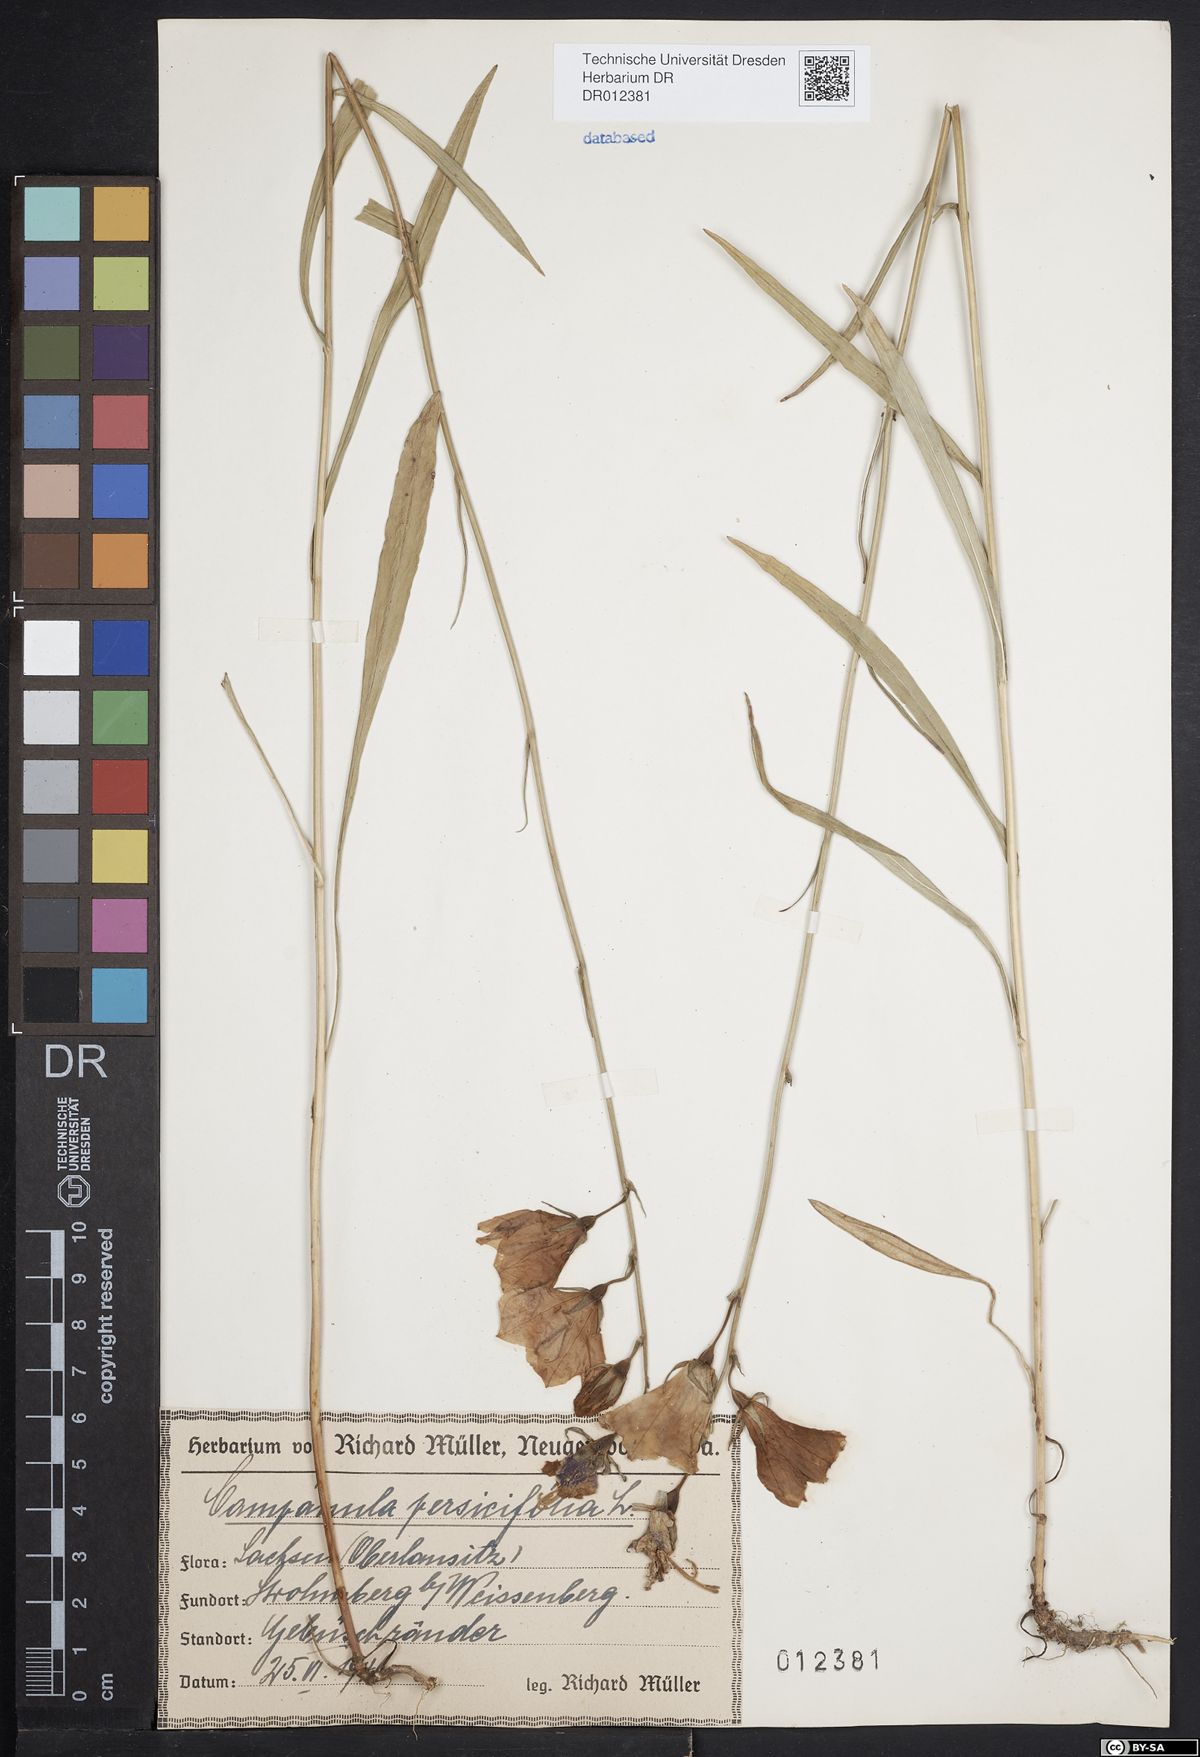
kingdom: Plantae
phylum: Tracheophyta
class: Magnoliopsida
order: Asterales
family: Campanulaceae
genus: Campanula
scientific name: Campanula persicifolia
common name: Peach-leaved bellflower
